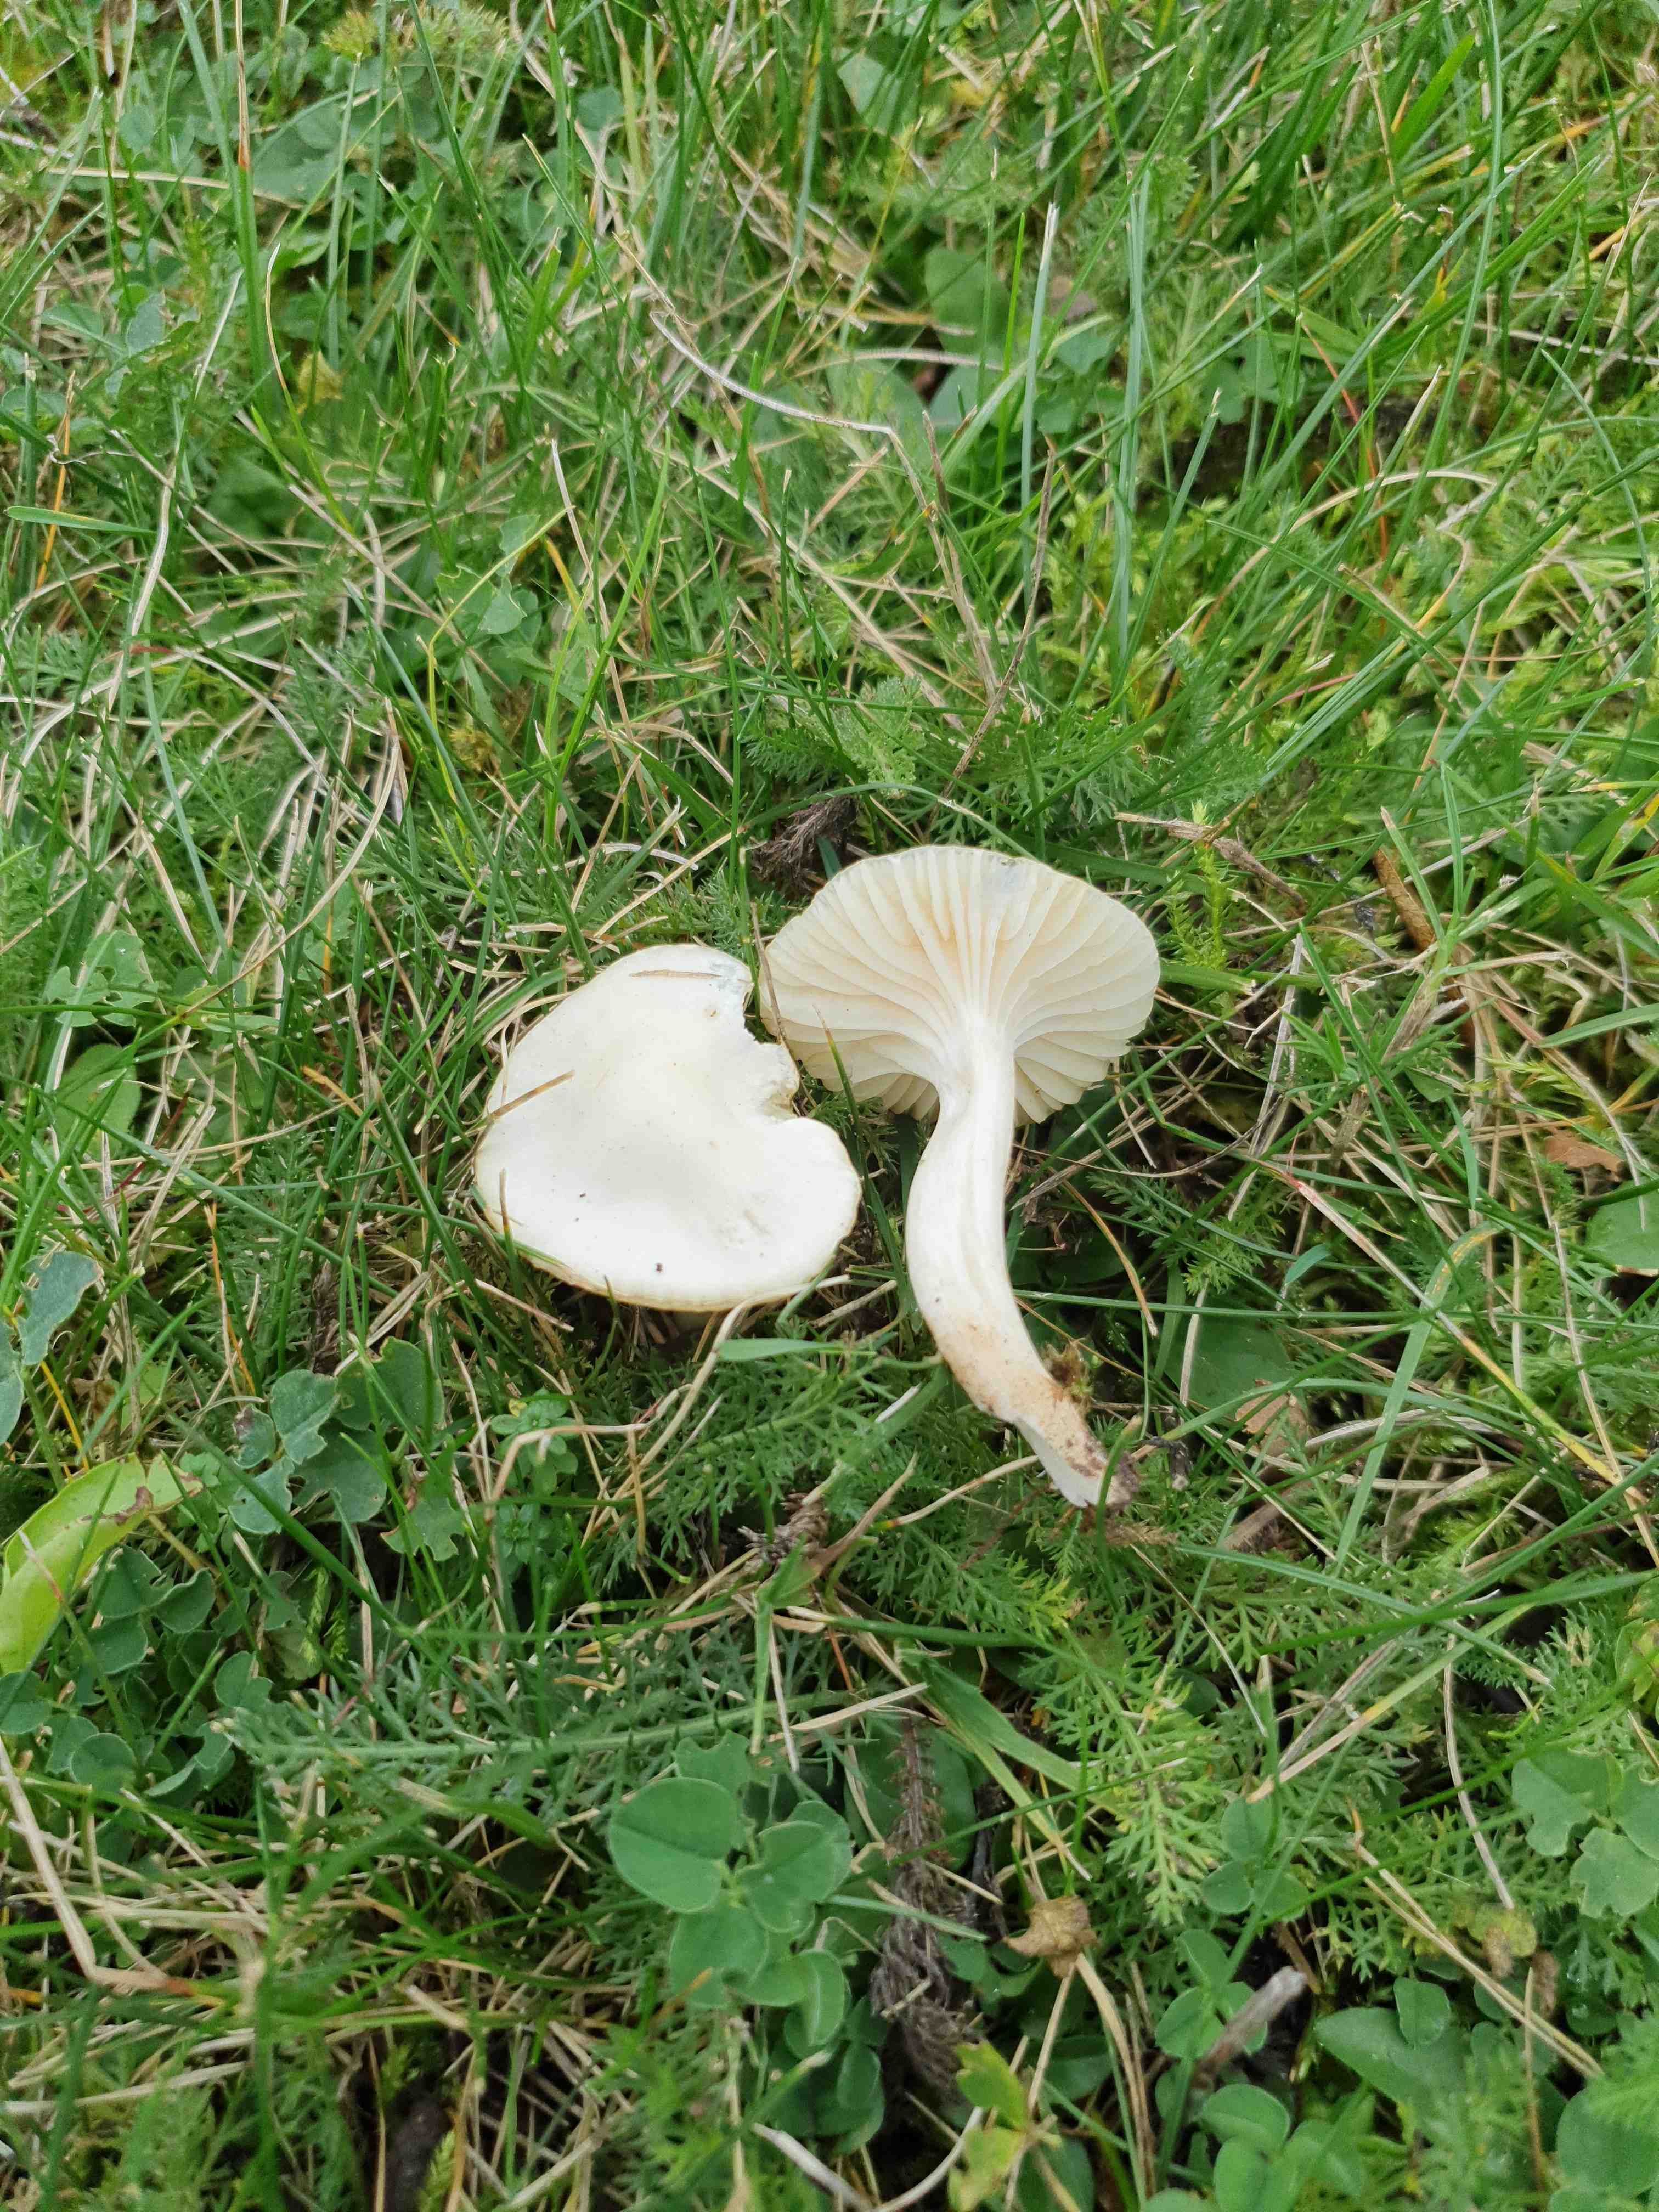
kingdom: Fungi
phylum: Basidiomycota
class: Agaricomycetes
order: Agaricales
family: Hygrophoraceae
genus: Cuphophyllus
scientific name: Cuphophyllus virgineus
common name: snehvid vokshat
